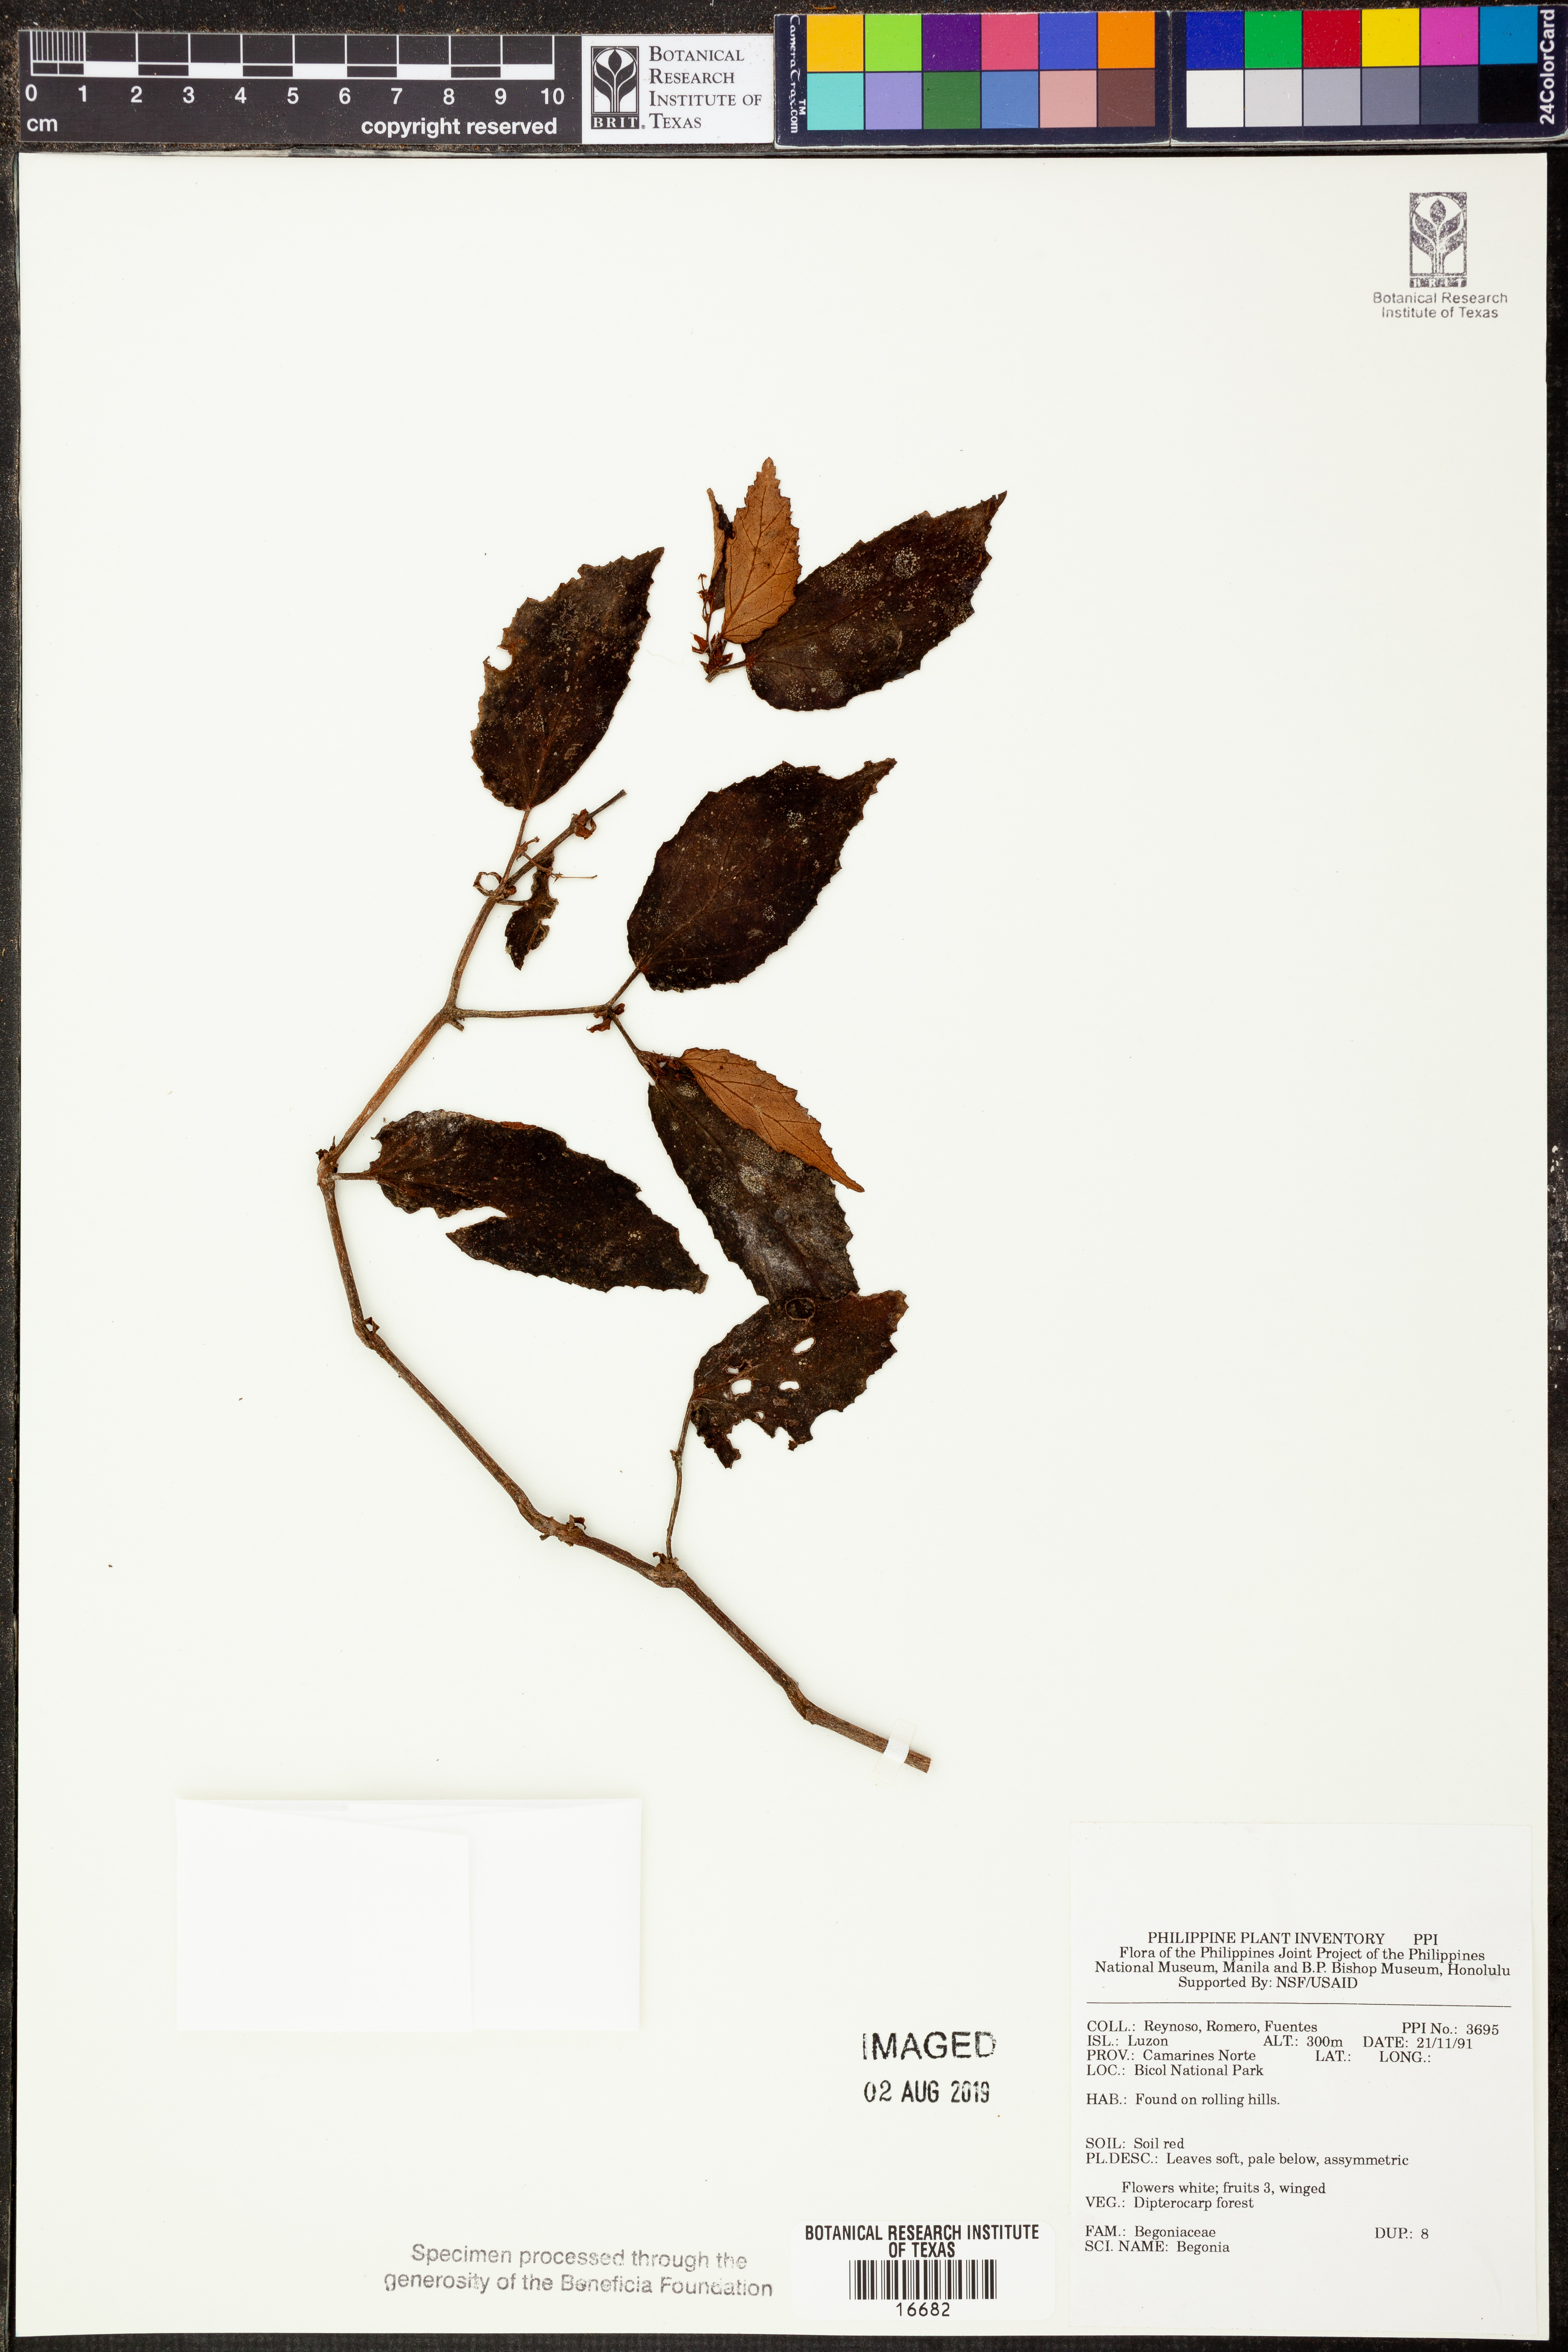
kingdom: Plantae
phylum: Tracheophyta
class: Magnoliopsida
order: Cucurbitales
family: Begoniaceae
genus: Begonia
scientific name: Begonia
